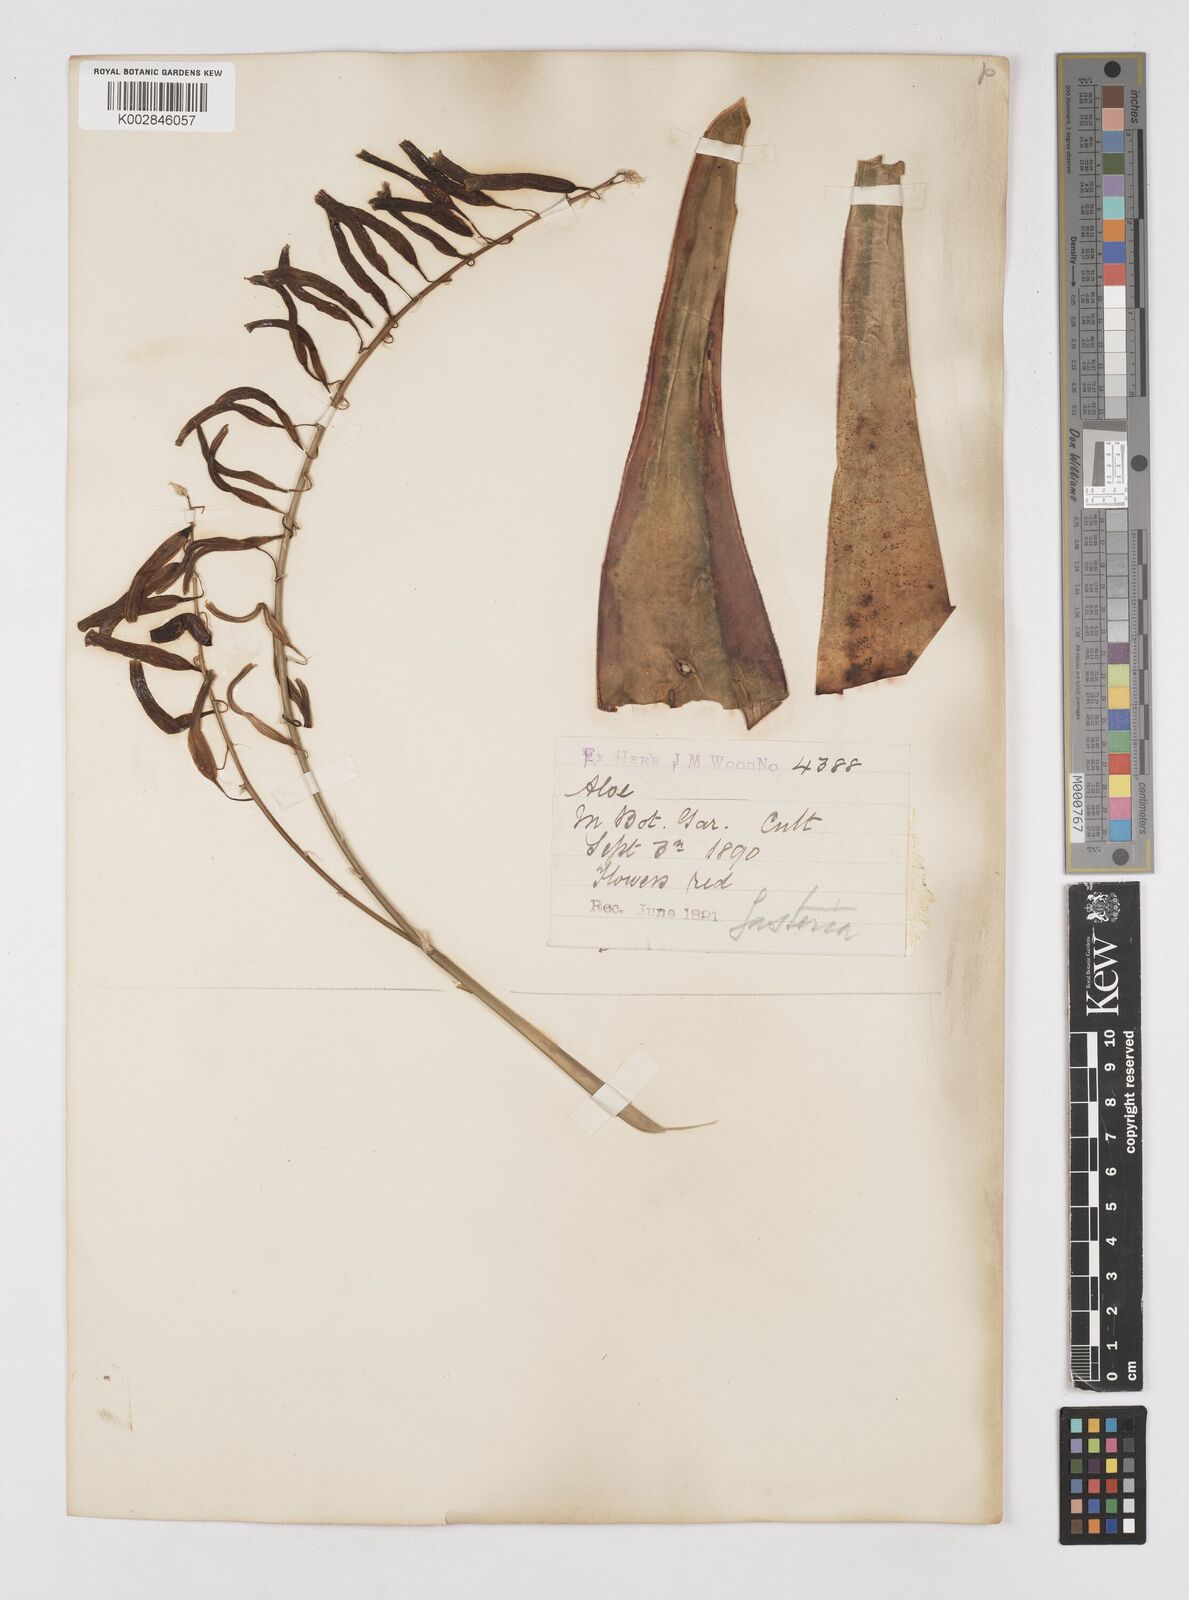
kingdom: Plantae
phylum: Tracheophyta
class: Liliopsida
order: Asparagales
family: Asphodelaceae
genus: Gasteria
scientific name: Gasteria croucheri
